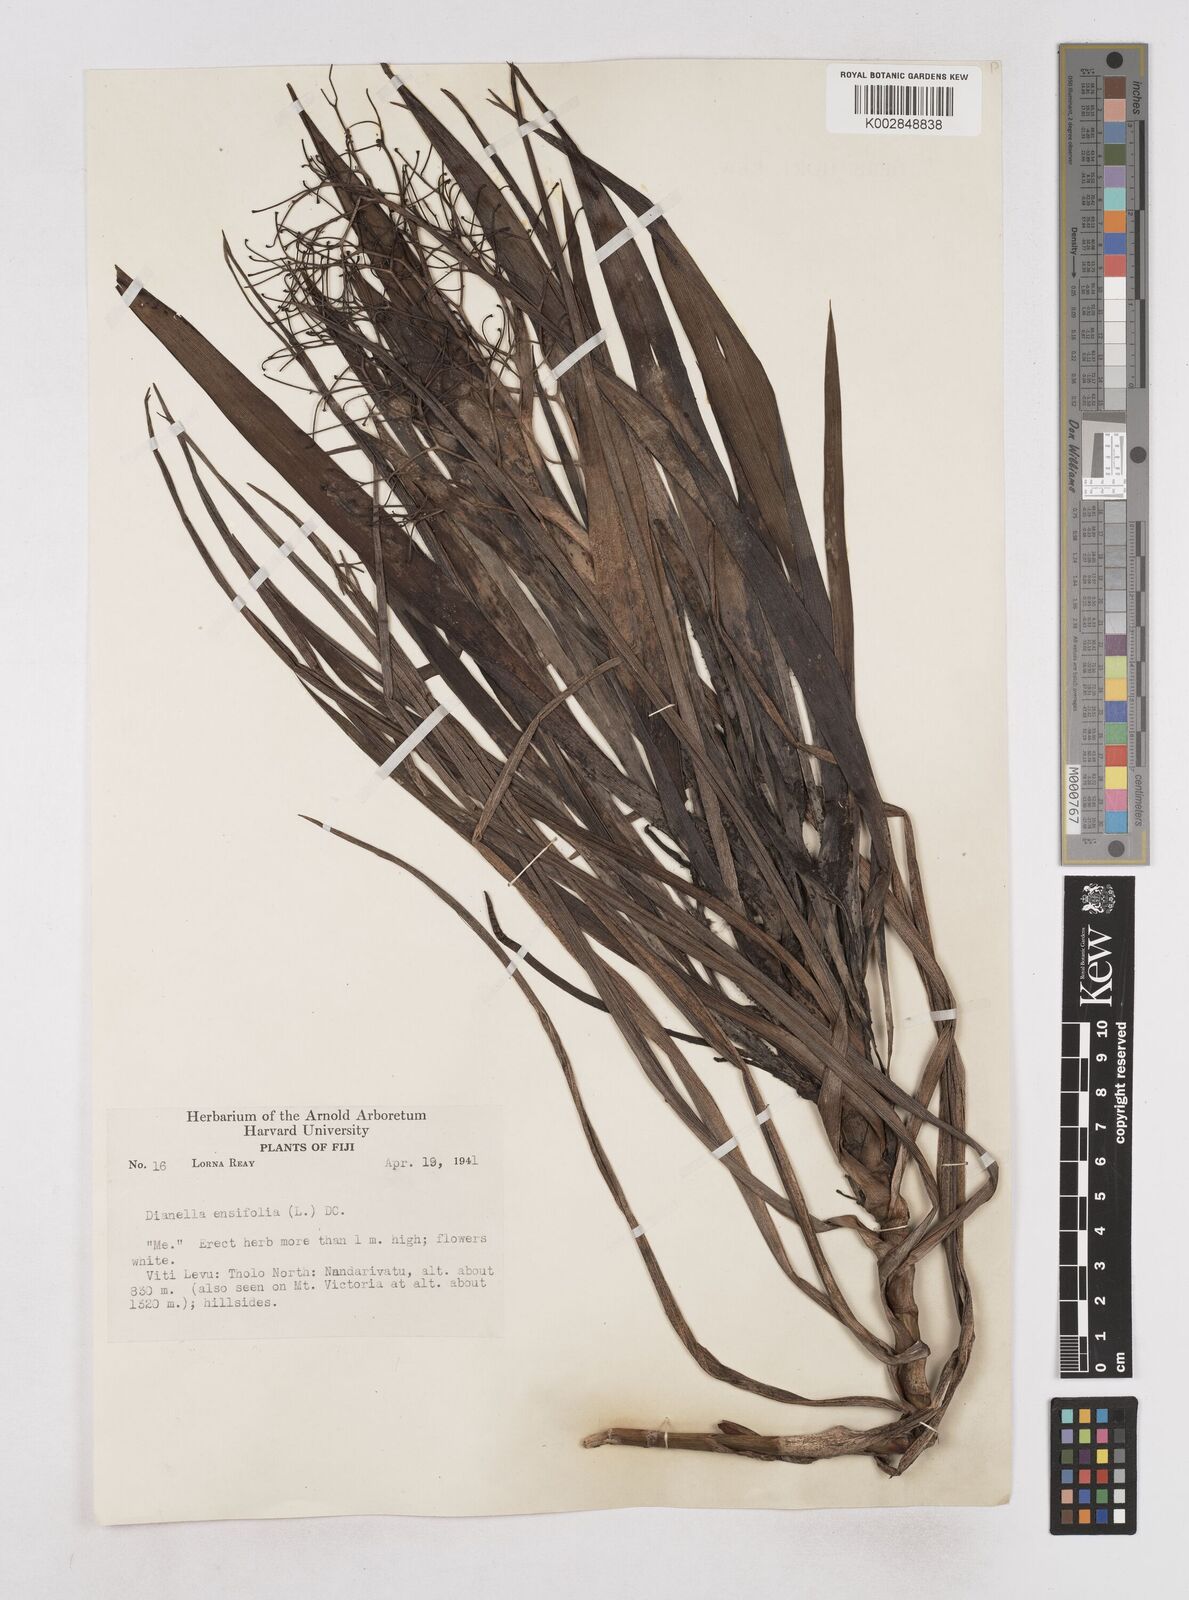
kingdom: Plantae
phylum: Tracheophyta
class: Liliopsida
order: Asparagales
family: Asphodelaceae
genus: Dianella
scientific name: Dianella ensifolia
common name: New zealand lilyplant
